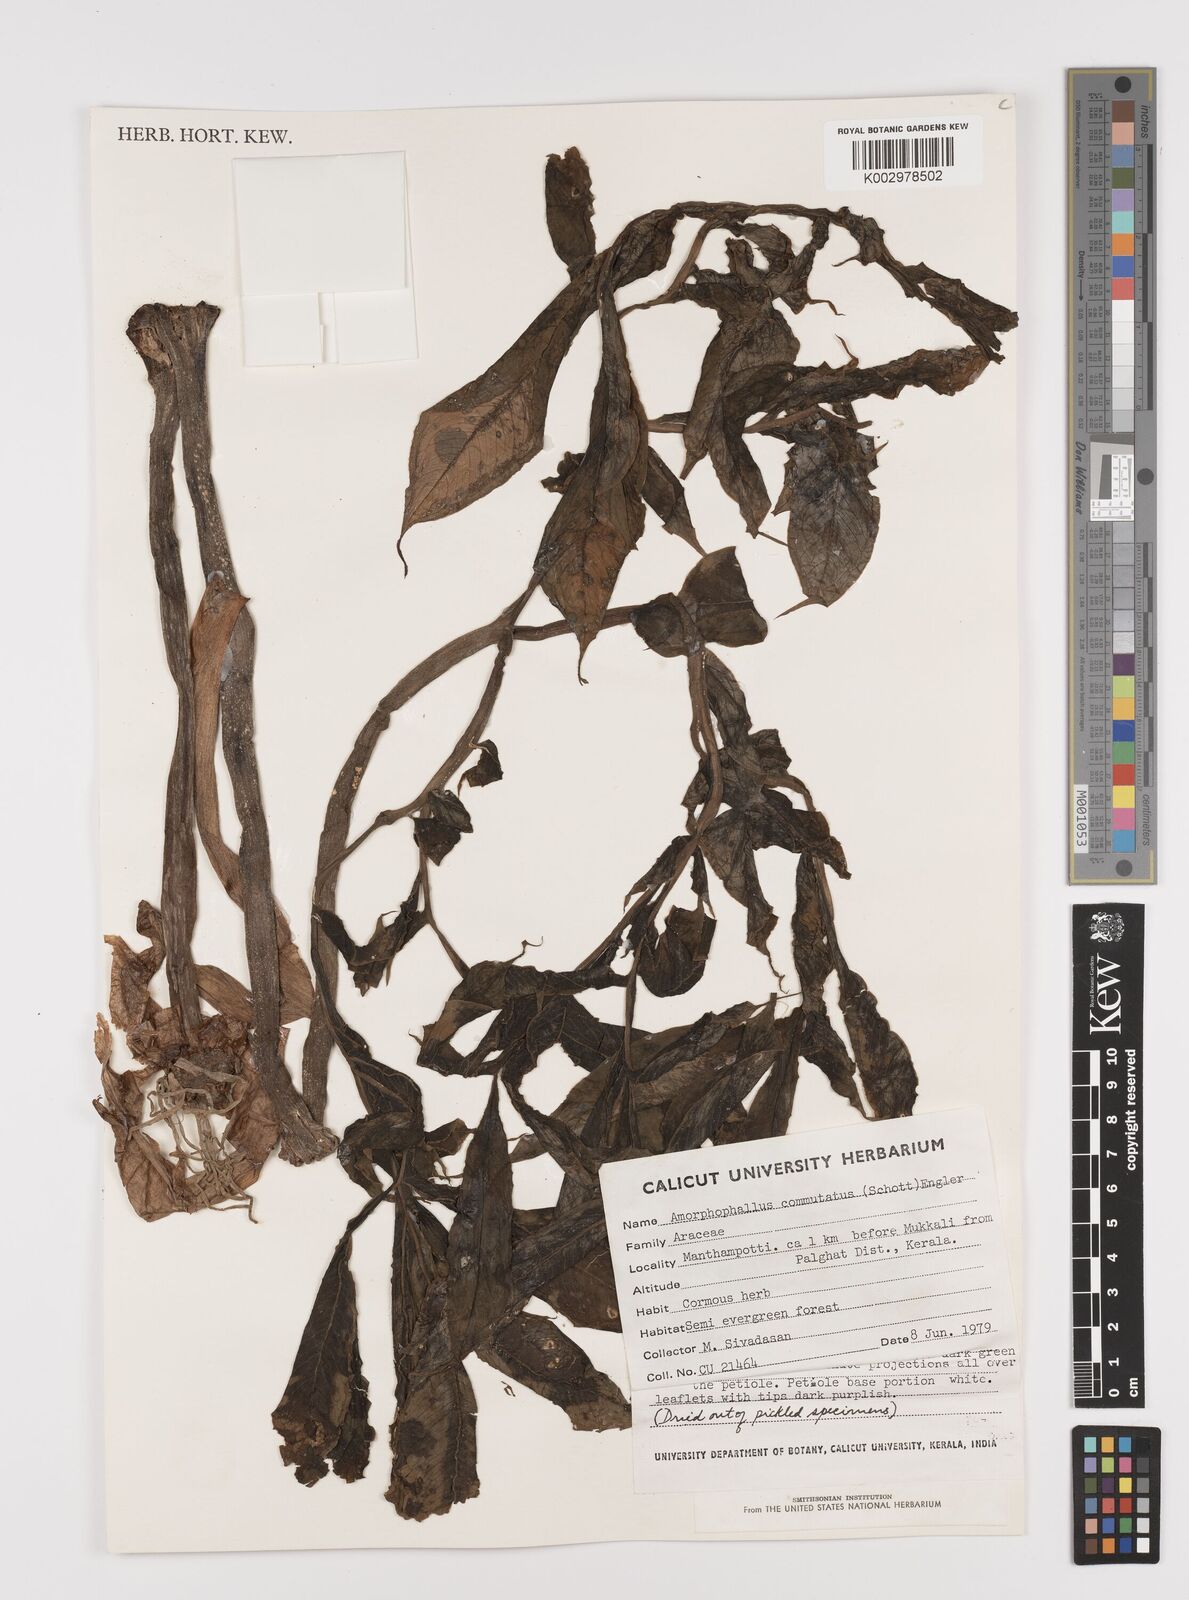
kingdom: Plantae
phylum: Tracheophyta
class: Liliopsida
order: Alismatales
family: Araceae
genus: Amorphophallus
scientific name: Amorphophallus commutatus
